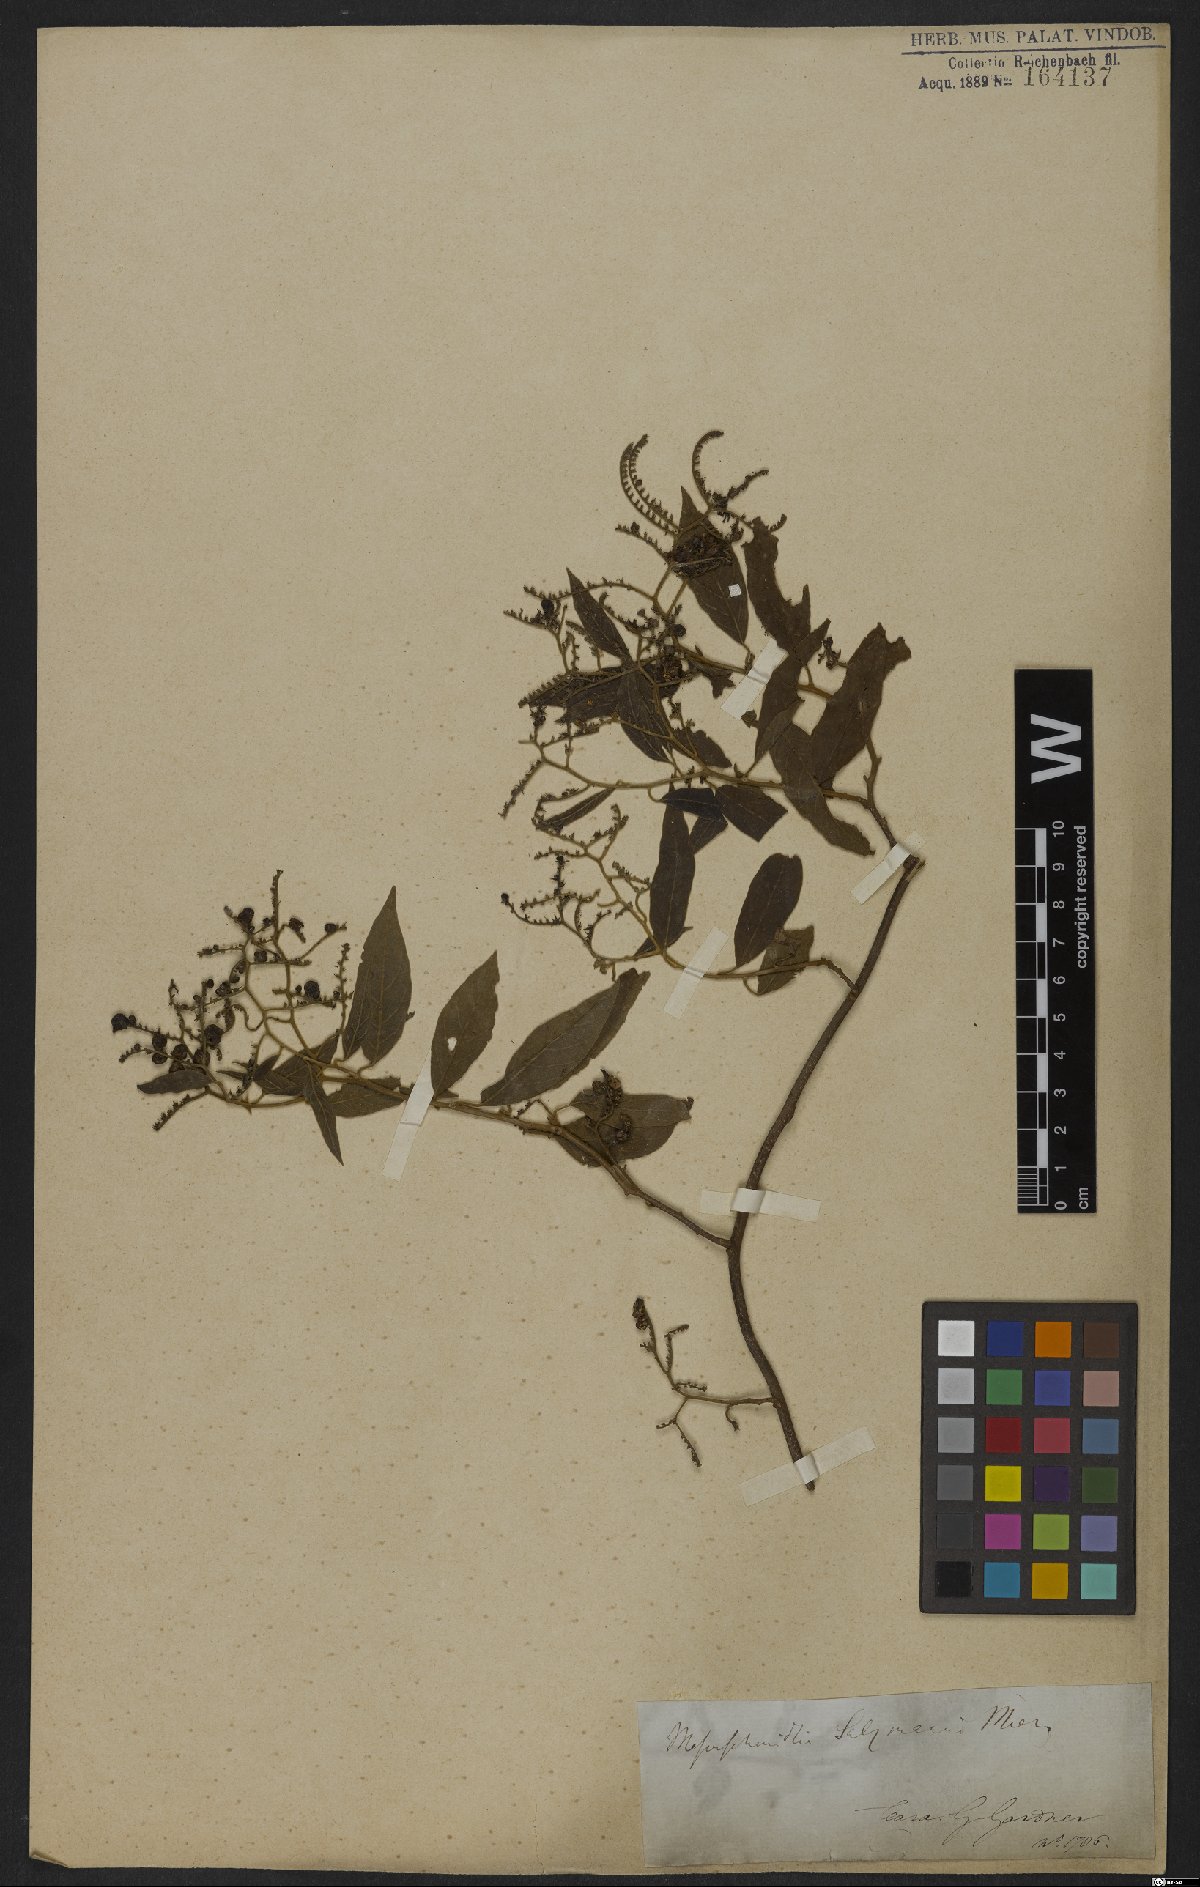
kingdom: Plantae
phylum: Tracheophyta
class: Magnoliopsida
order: Boraginales
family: Heliotropiaceae
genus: Myriopus
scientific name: Myriopus salzmannii
